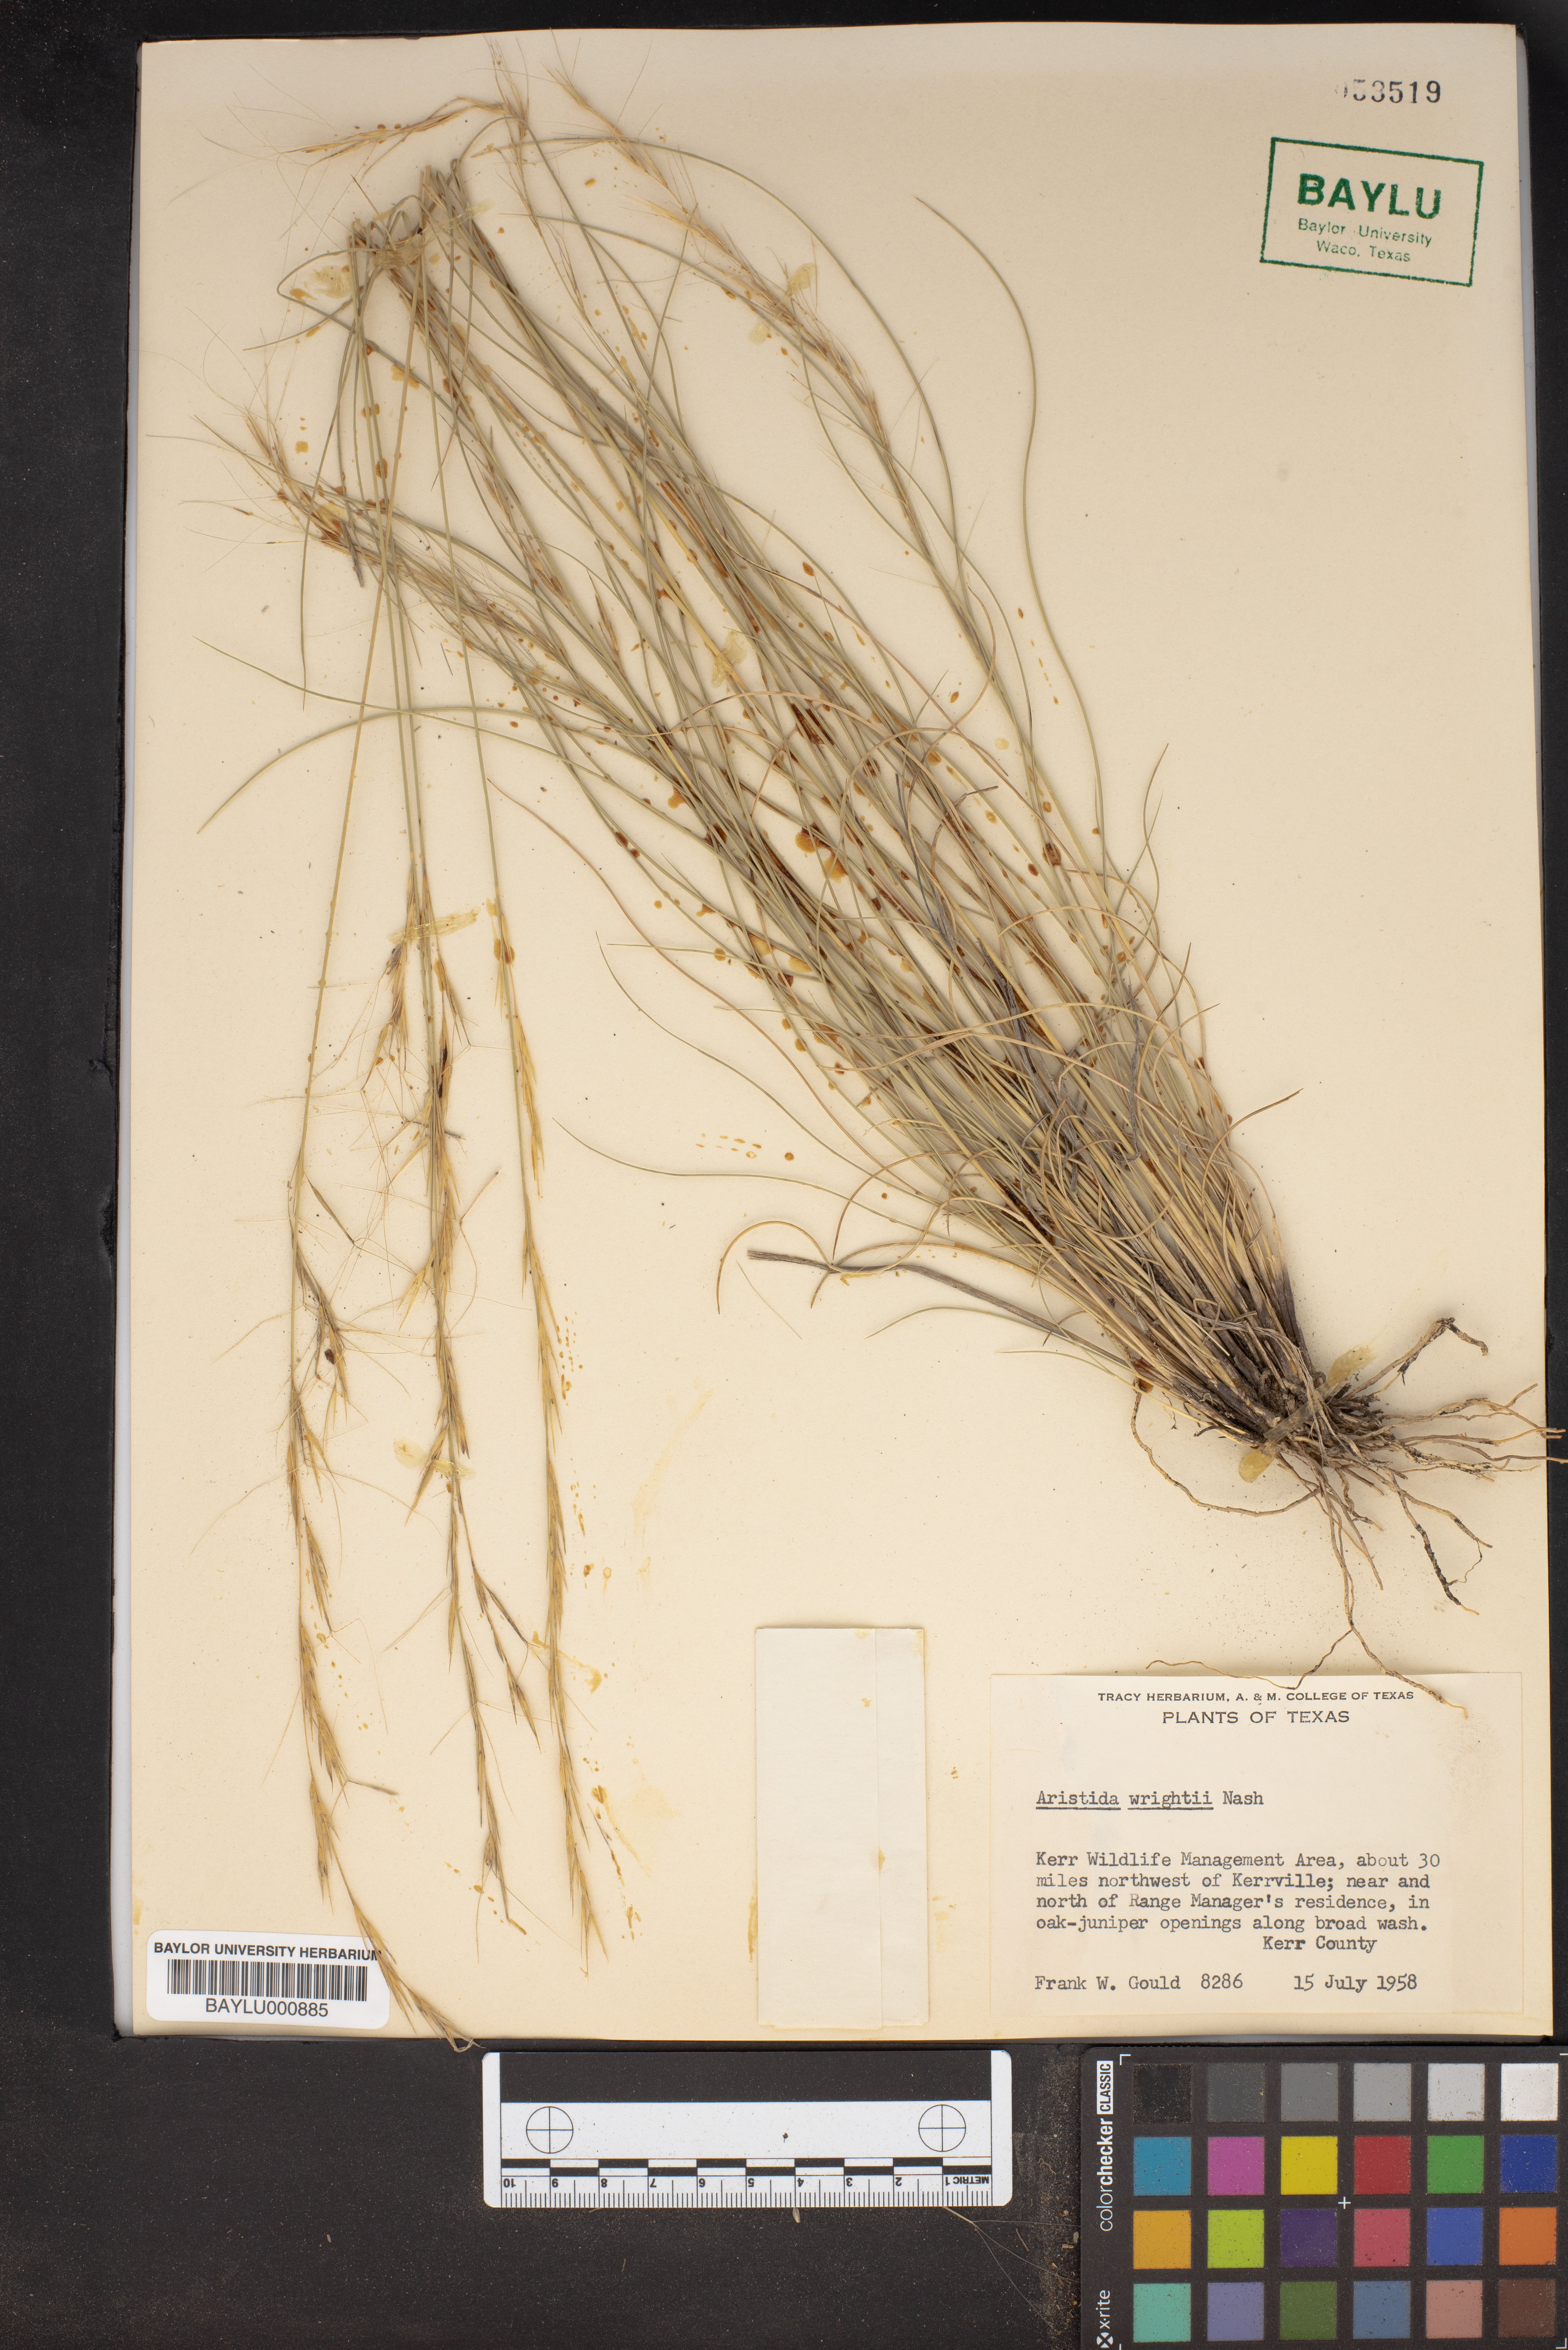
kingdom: Plantae
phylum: Tracheophyta
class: Liliopsida
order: Poales
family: Poaceae
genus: Aristida
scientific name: Aristida wrightii
